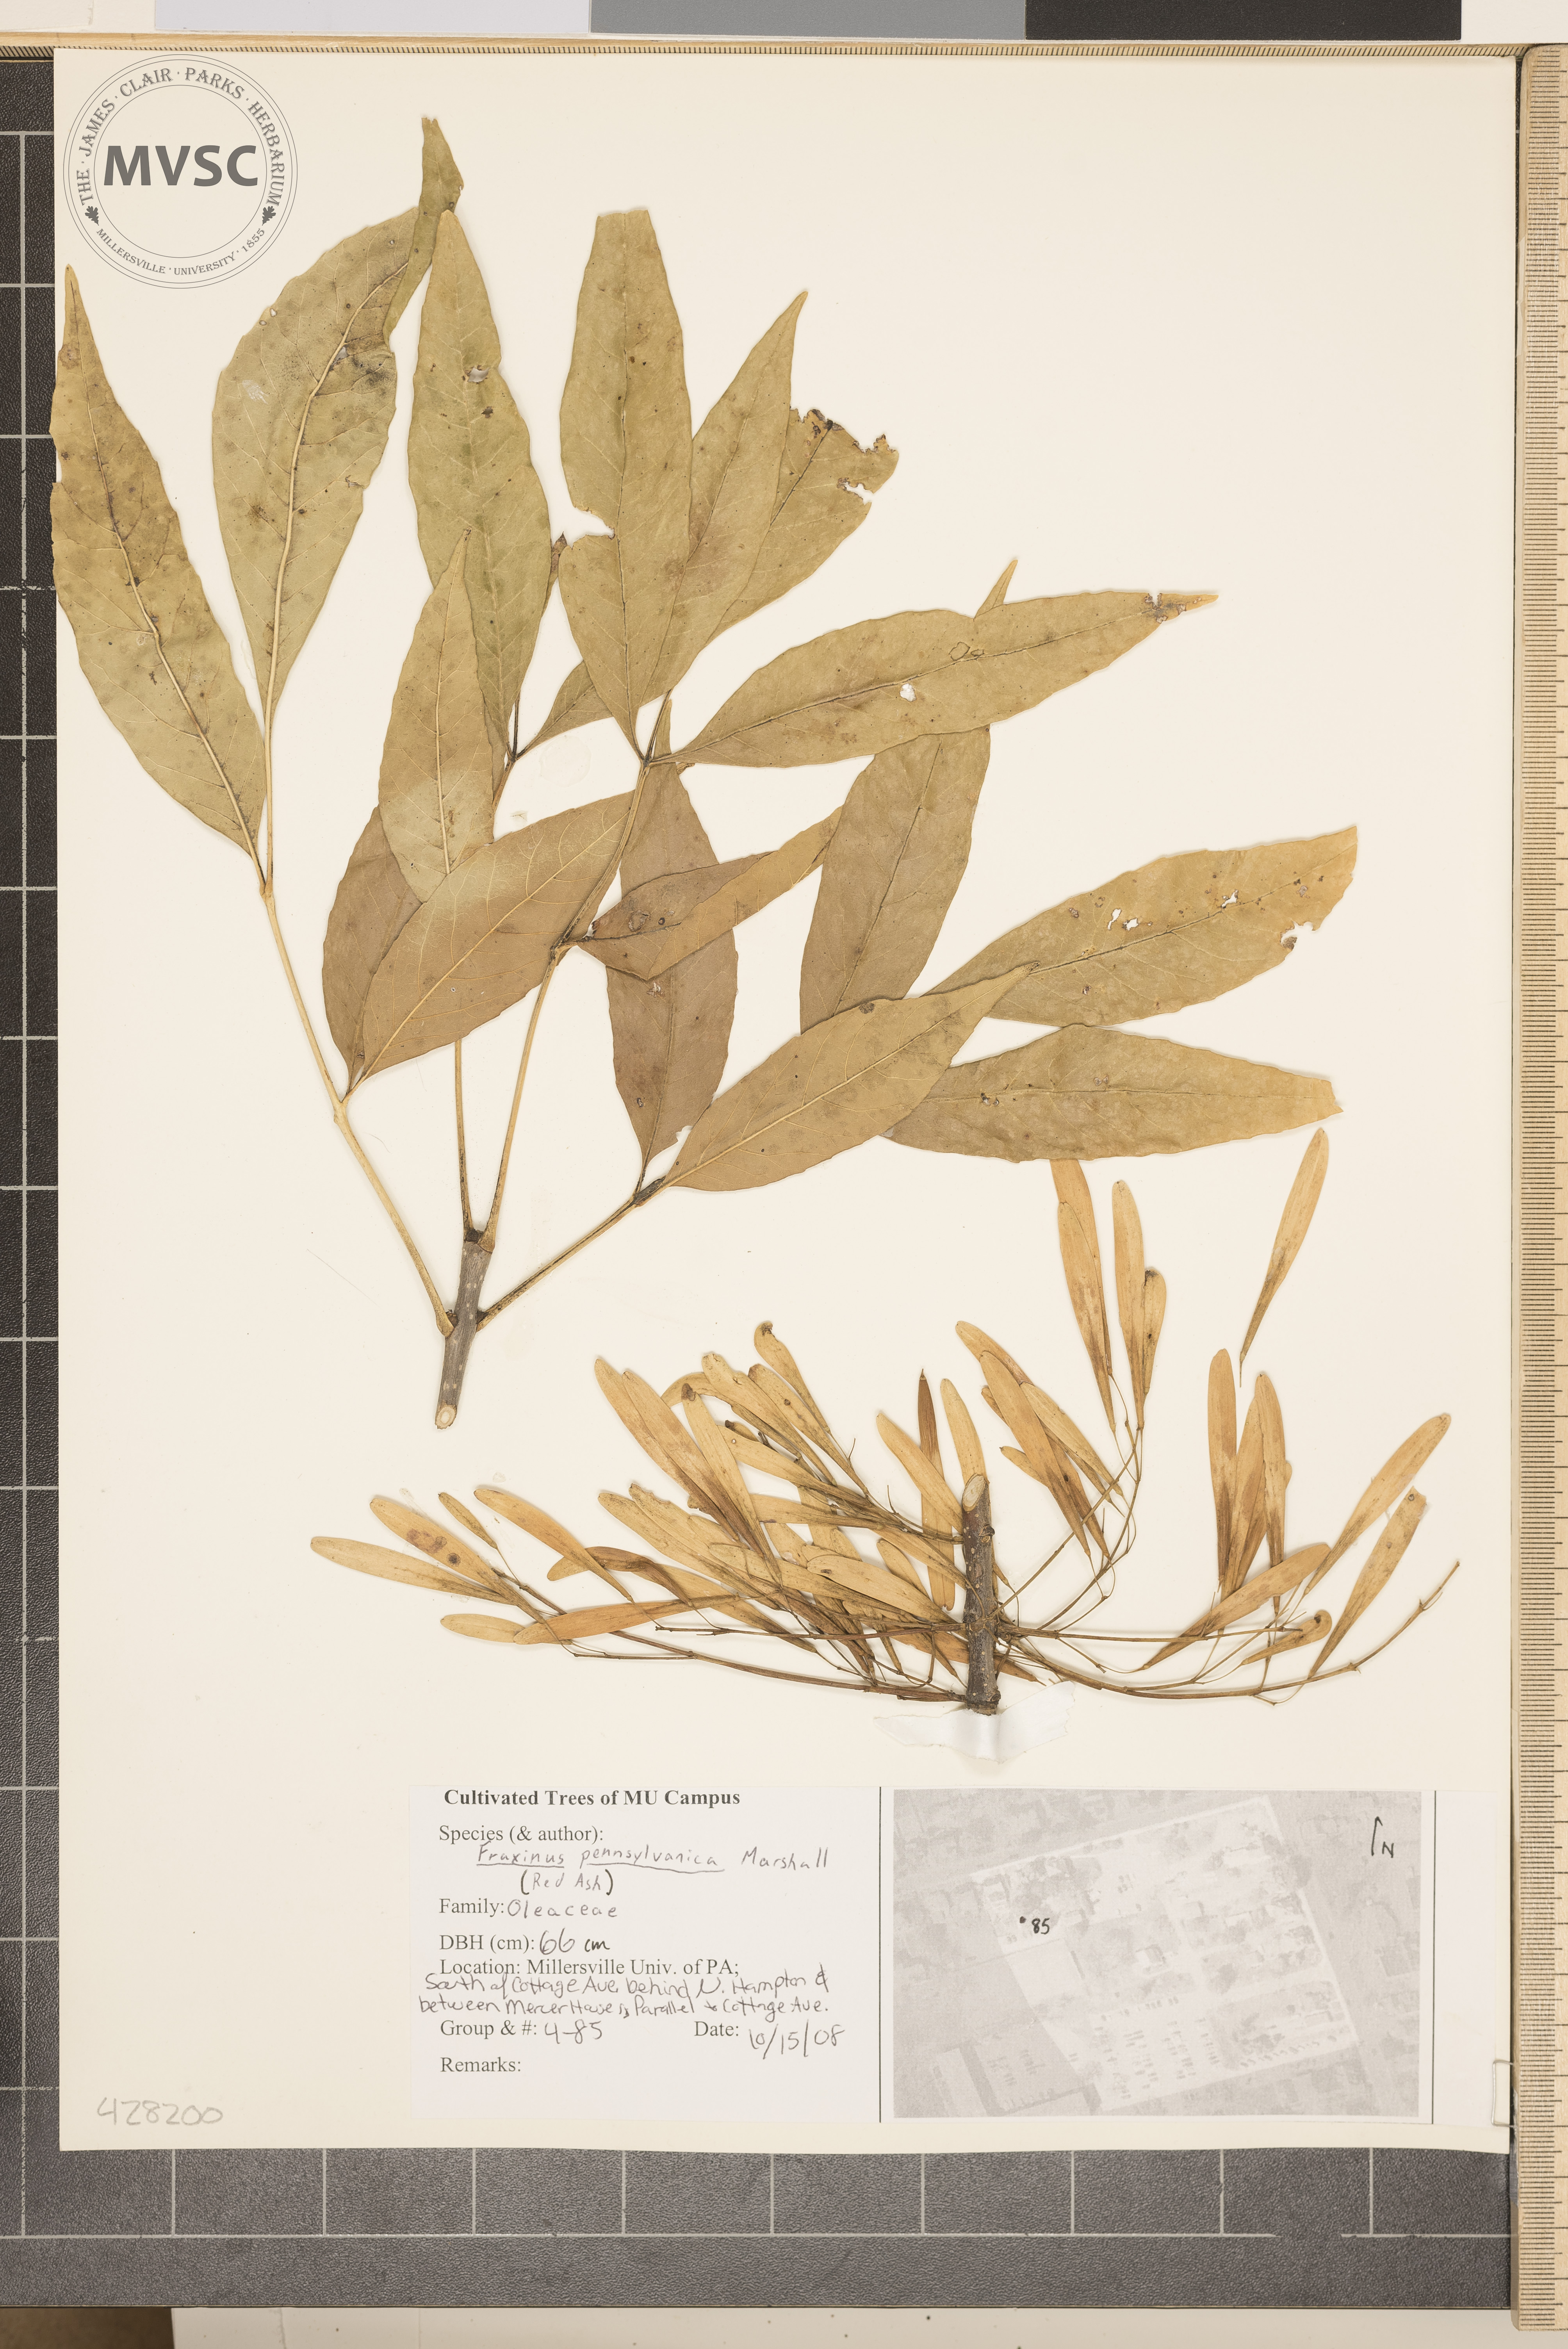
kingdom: Plantae
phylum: Tracheophyta
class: Magnoliopsida
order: Lamiales
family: Oleaceae
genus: Fraxinus
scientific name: Fraxinus pennsylvanica
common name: Ash
